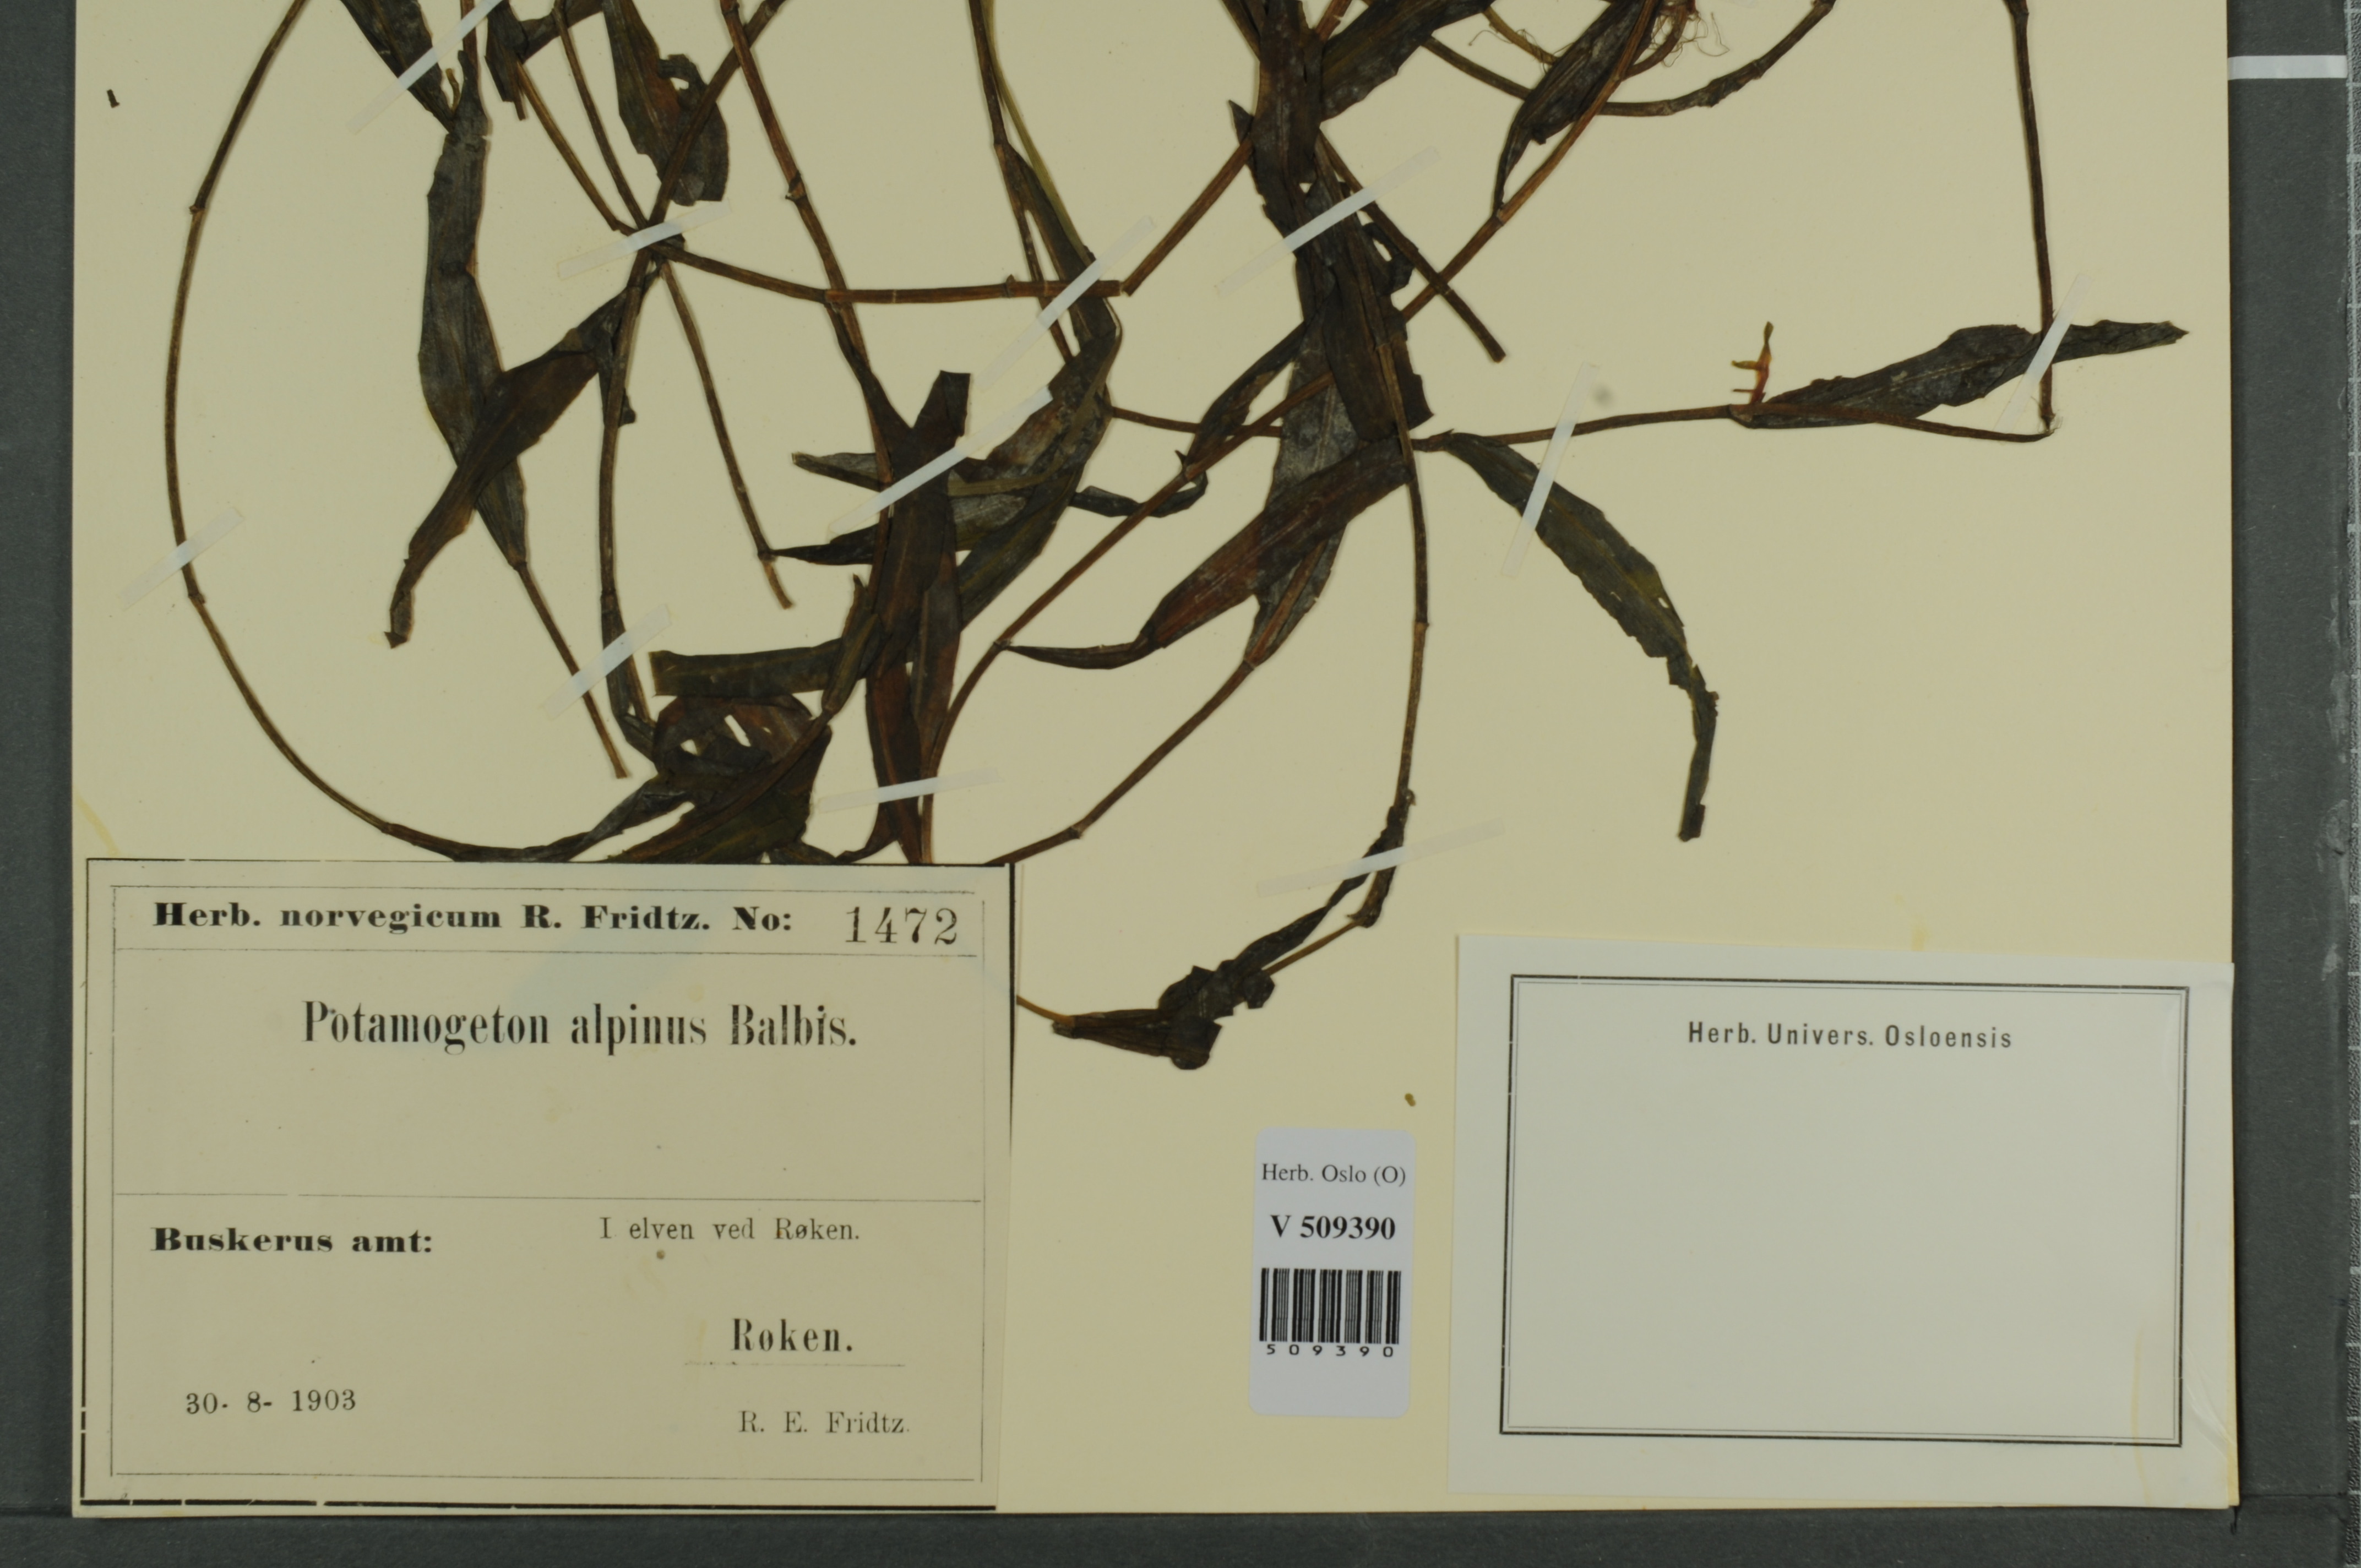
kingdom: Plantae
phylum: Tracheophyta
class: Liliopsida
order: Alismatales
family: Potamogetonaceae
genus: Potamogeton
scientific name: Potamogeton alpinus
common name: Red pondweed
